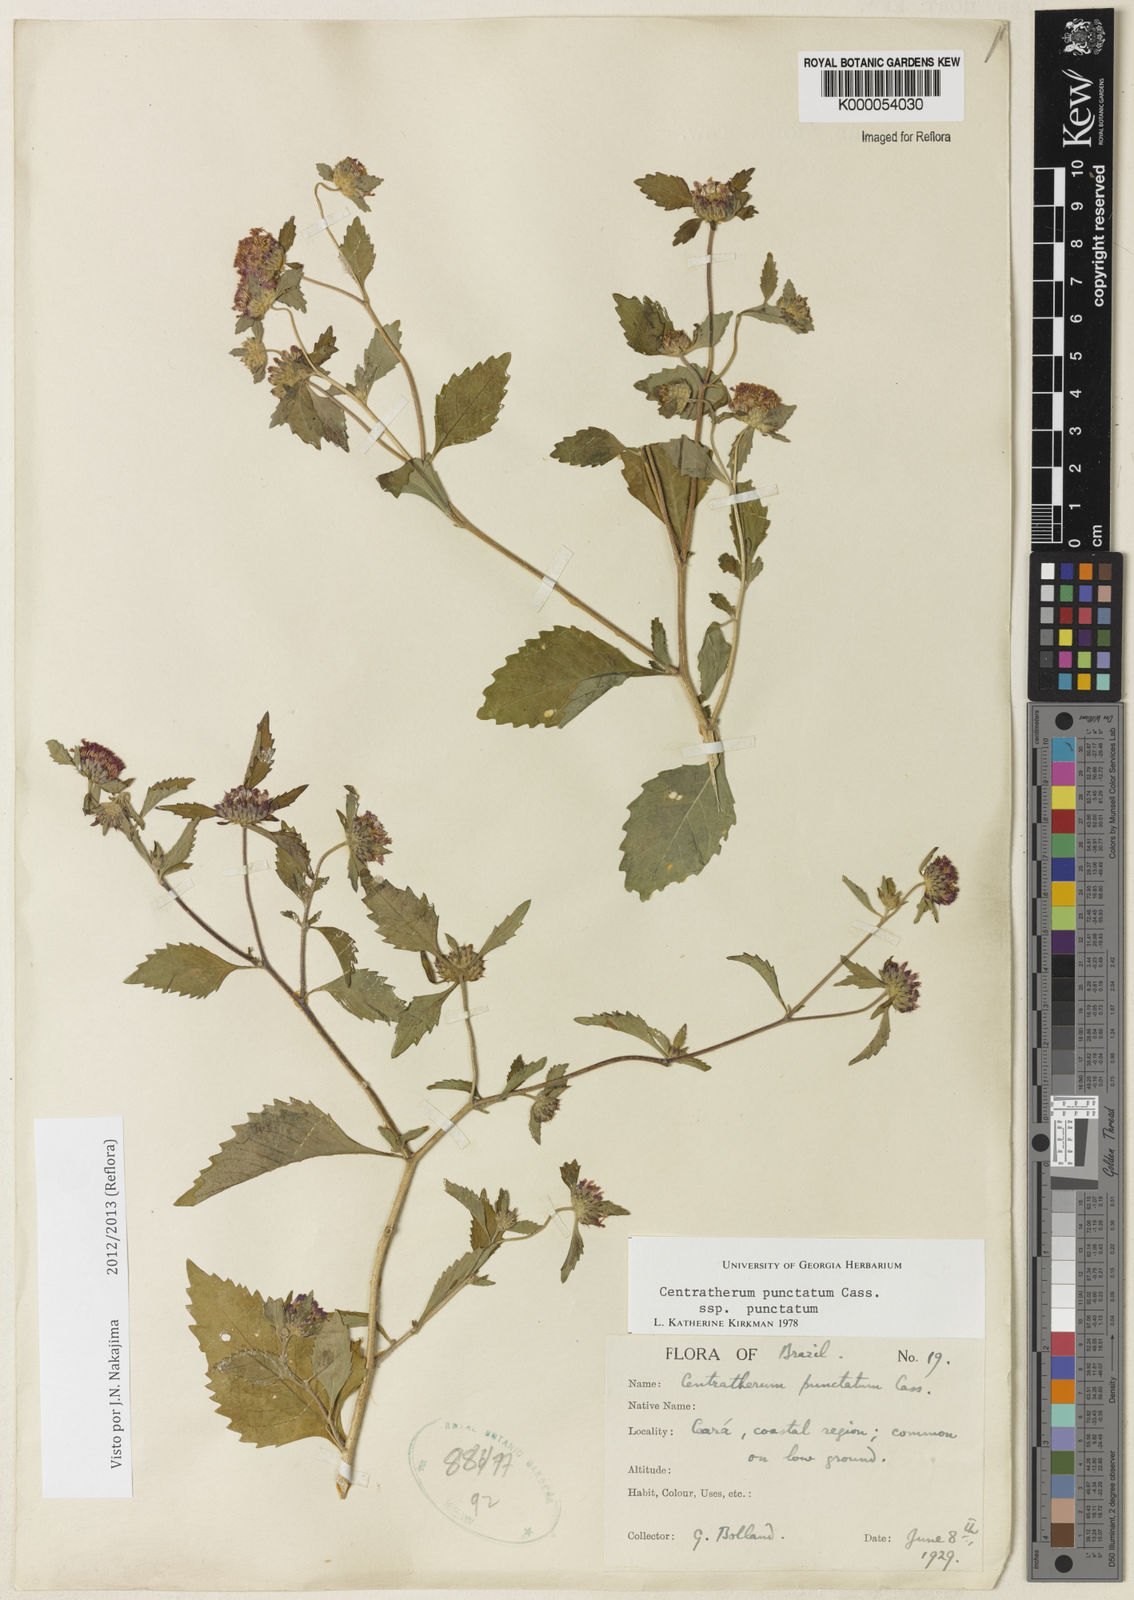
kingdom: Plantae
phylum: Tracheophyta
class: Magnoliopsida
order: Asterales
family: Asteraceae
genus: Centratherum
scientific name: Centratherum punctatum
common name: Larkdaisy
